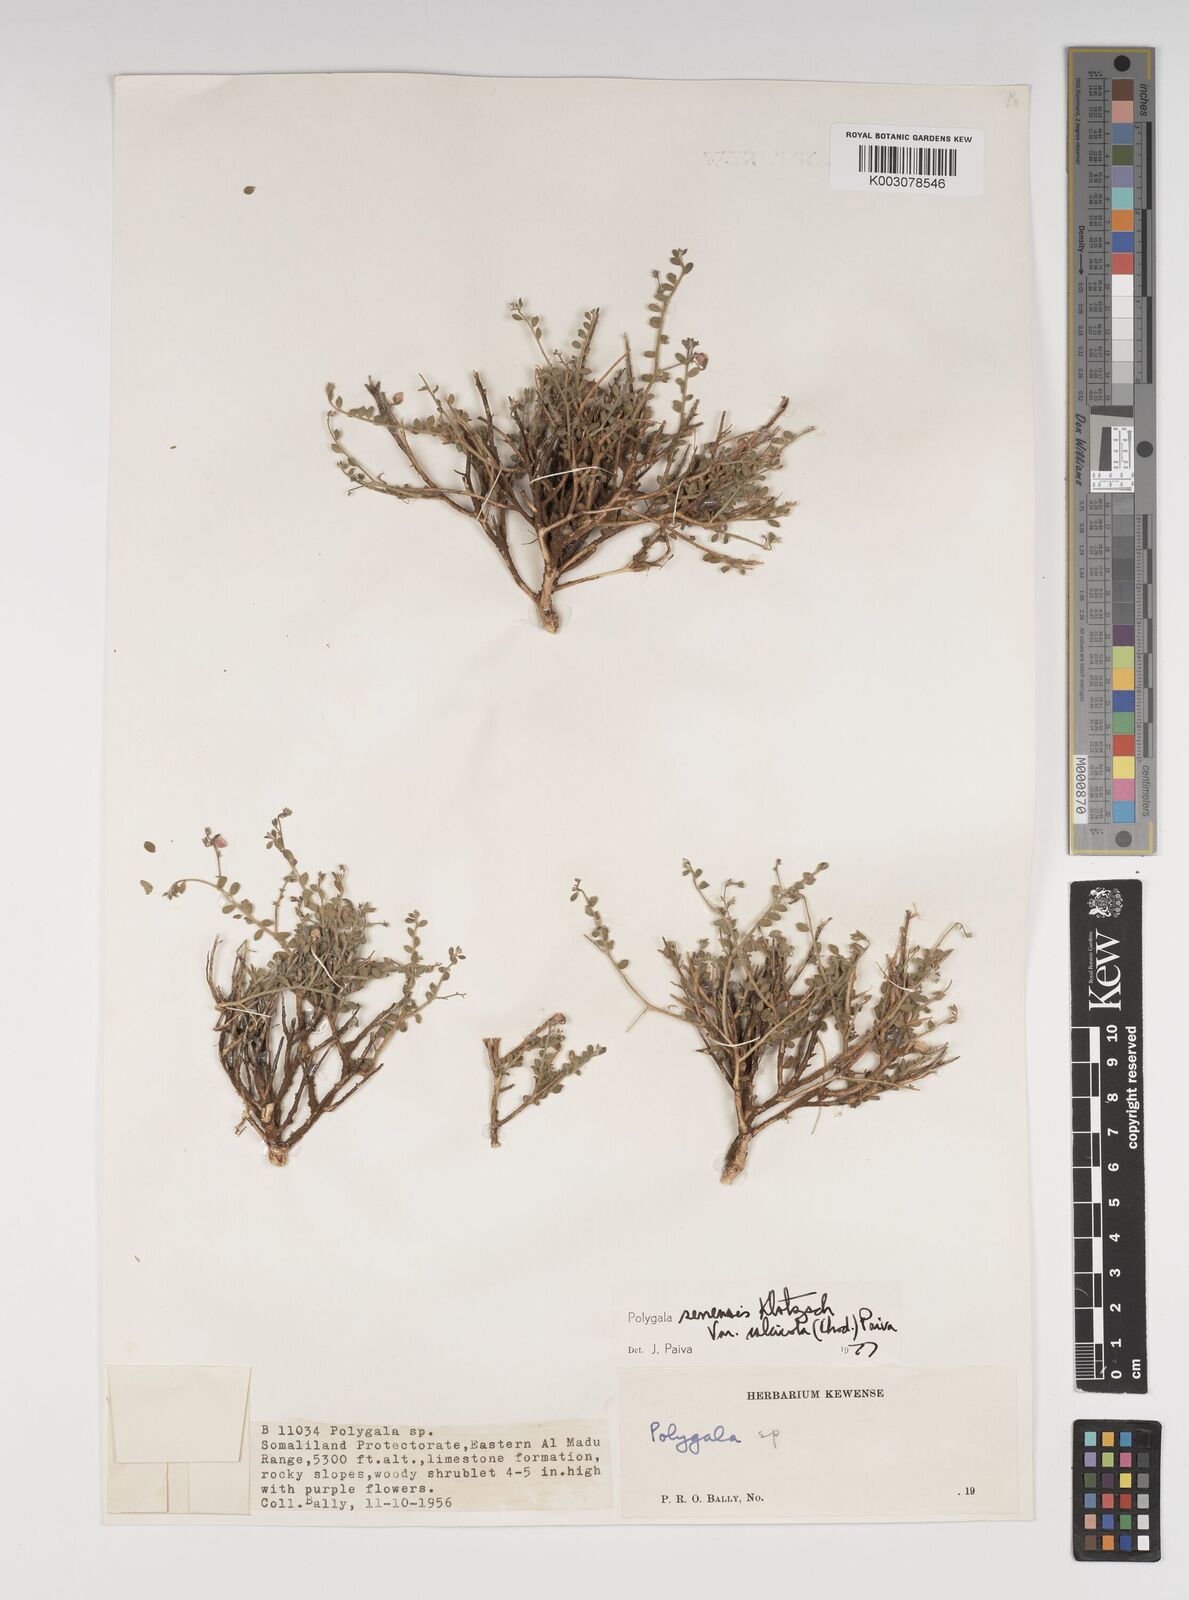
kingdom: Plantae
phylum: Tracheophyta
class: Magnoliopsida
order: Fabales
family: Polygalaceae
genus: Polygala
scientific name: Polygala obtusissima
